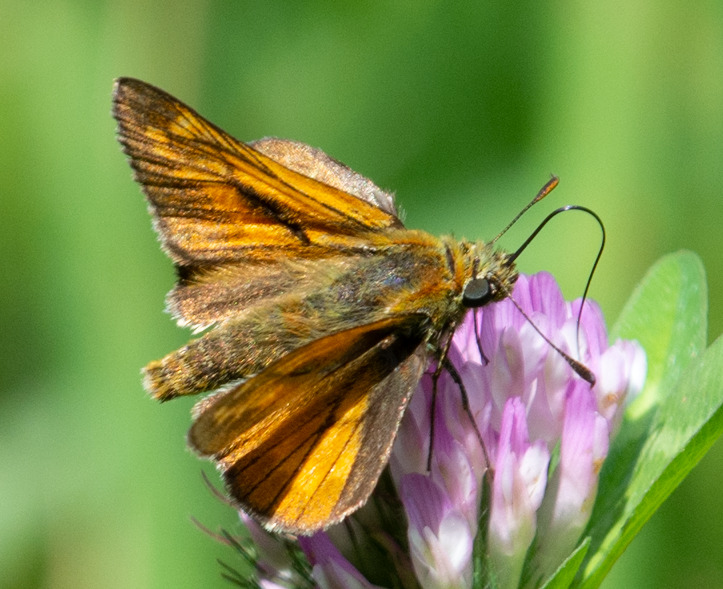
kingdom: Animalia
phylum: Arthropoda
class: Insecta
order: Lepidoptera
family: Hesperiidae
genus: Ochlodes
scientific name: Ochlodes venata
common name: Stor bredpande
